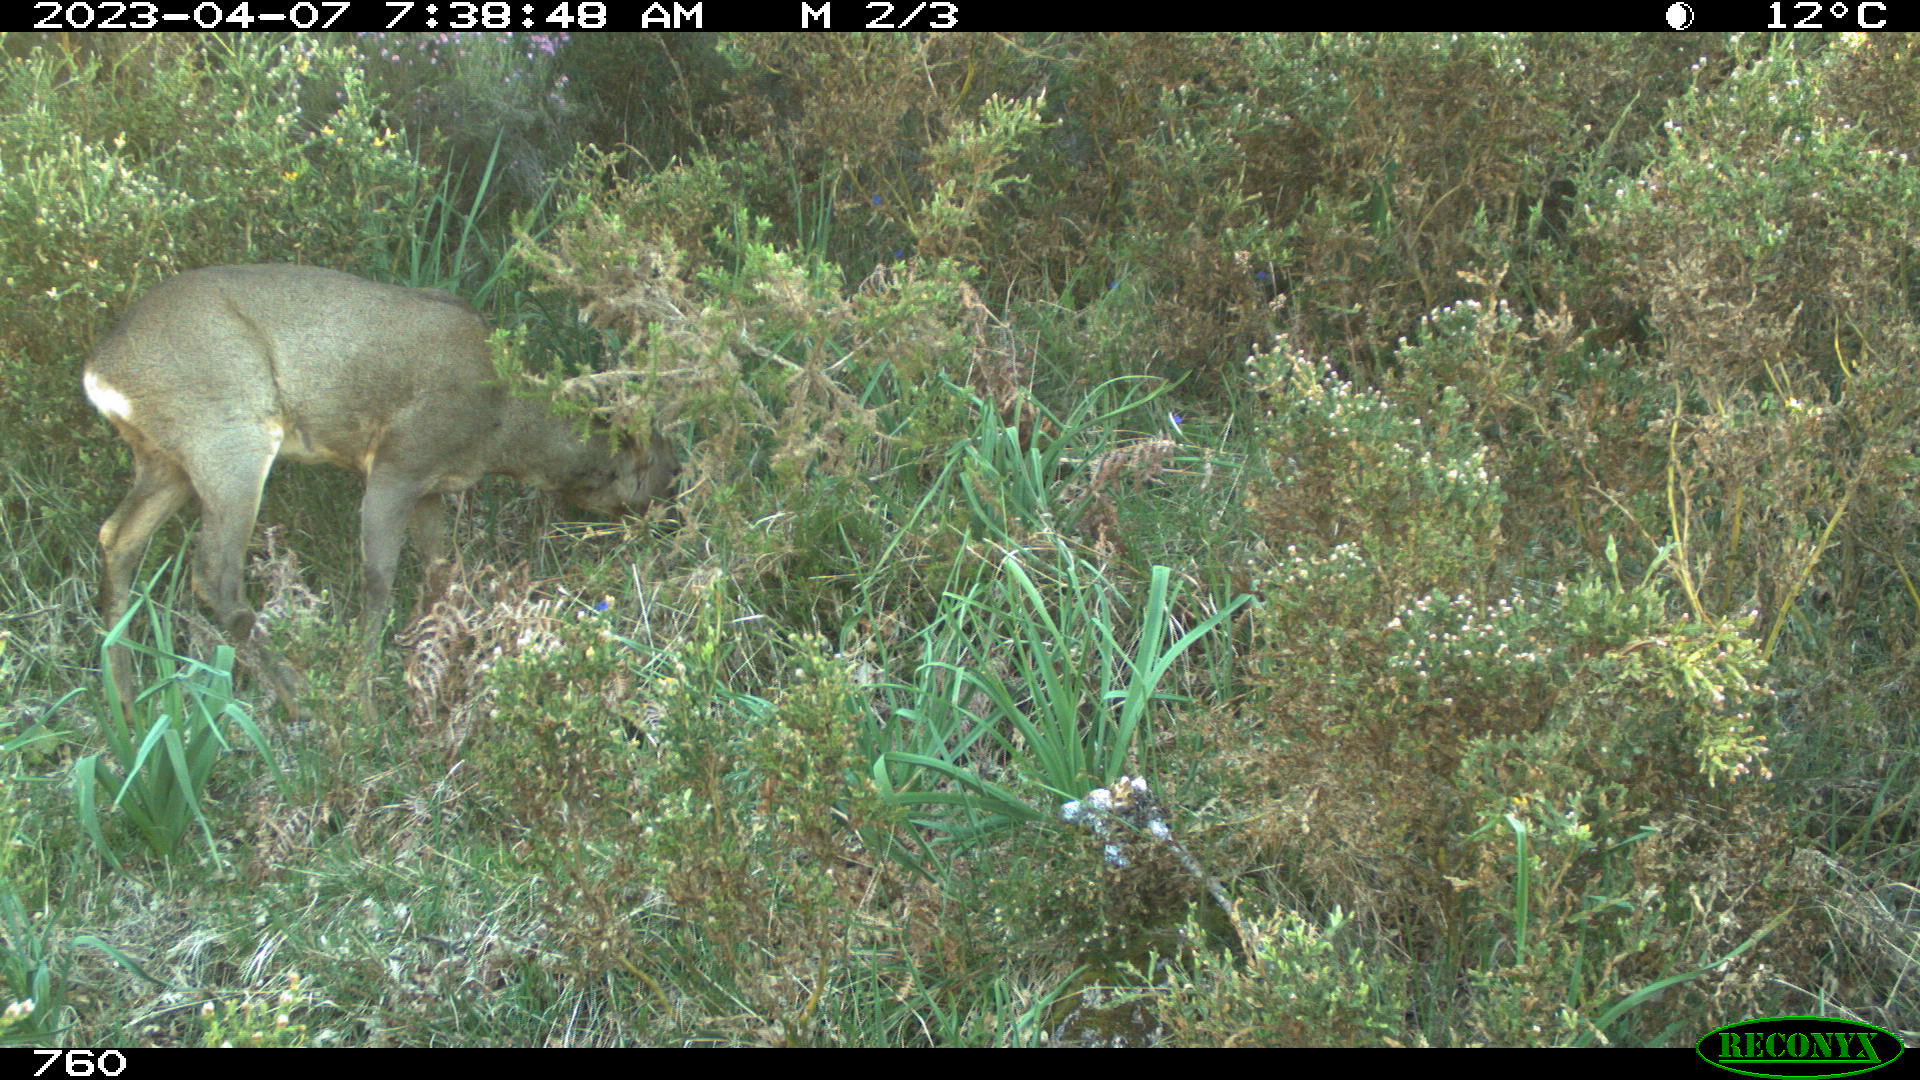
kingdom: Animalia
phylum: Chordata
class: Mammalia
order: Artiodactyla
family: Cervidae
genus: Capreolus
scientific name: Capreolus capreolus
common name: Western roe deer
